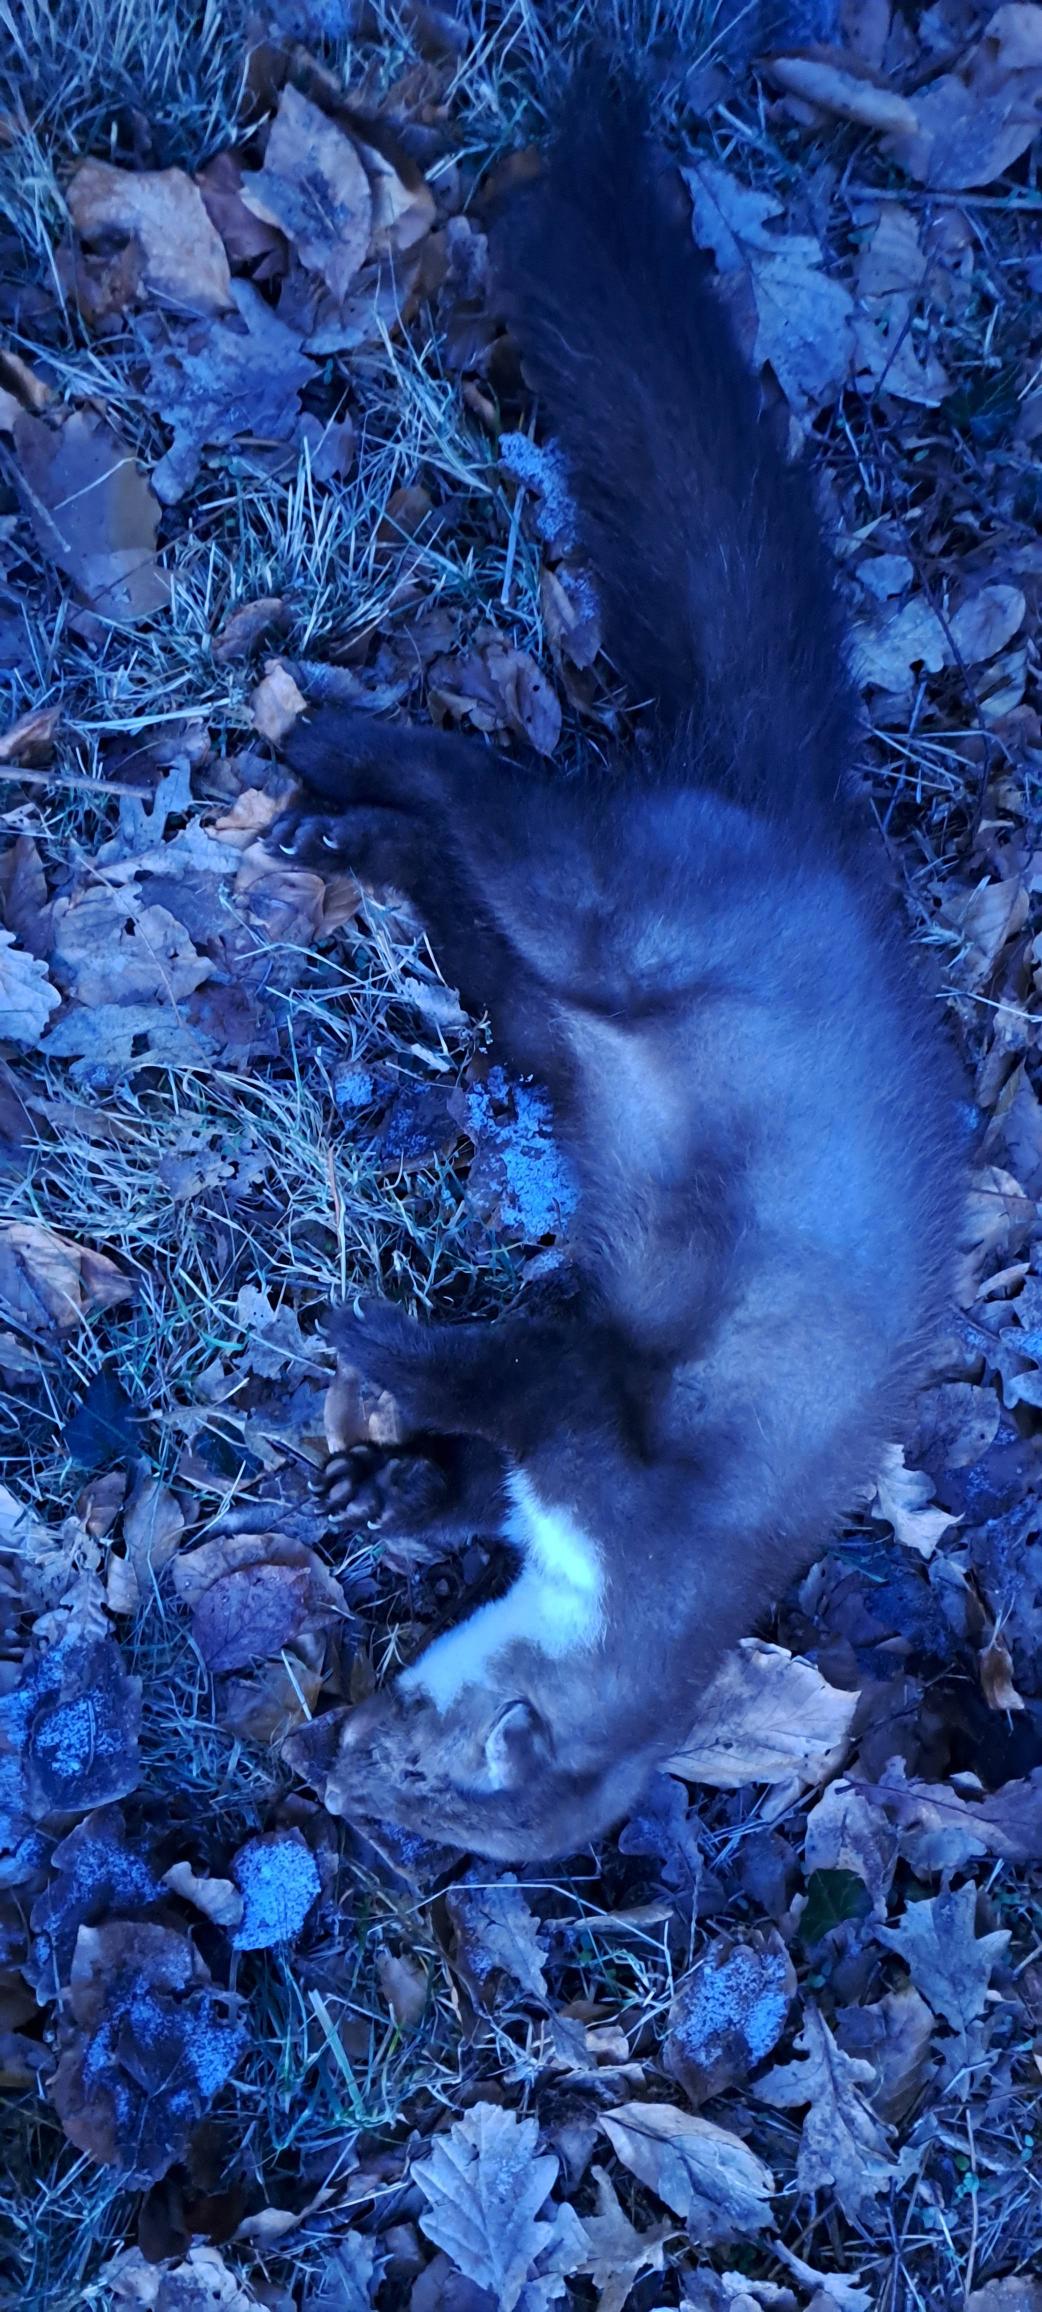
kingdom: Animalia
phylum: Chordata
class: Mammalia
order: Carnivora
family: Mustelidae
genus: Martes
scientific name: Martes foina
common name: Husmår
